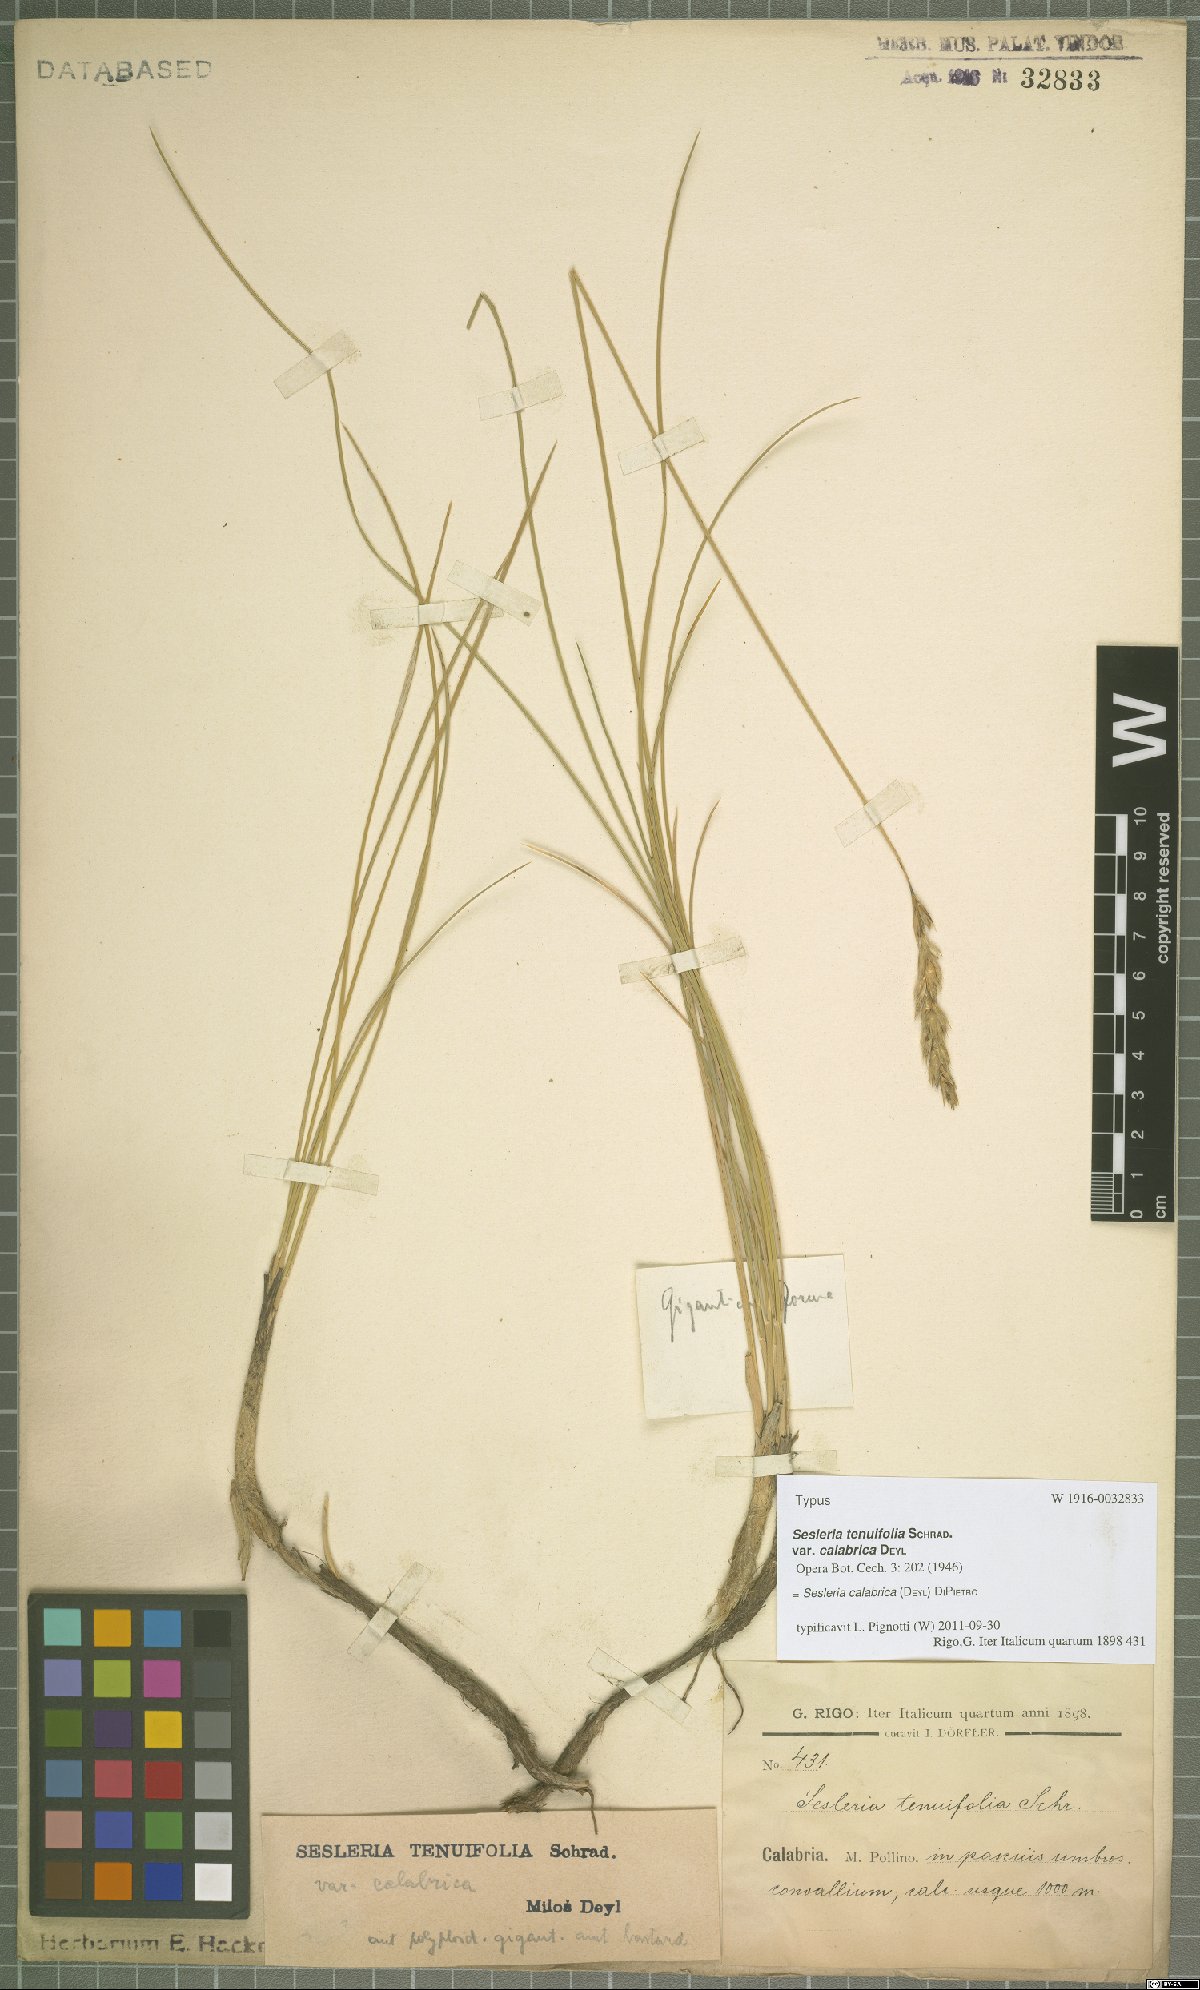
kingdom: Plantae
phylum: Tracheophyta
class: Liliopsida
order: Poales
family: Poaceae
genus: Sesleria
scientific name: Sesleria calabrica
